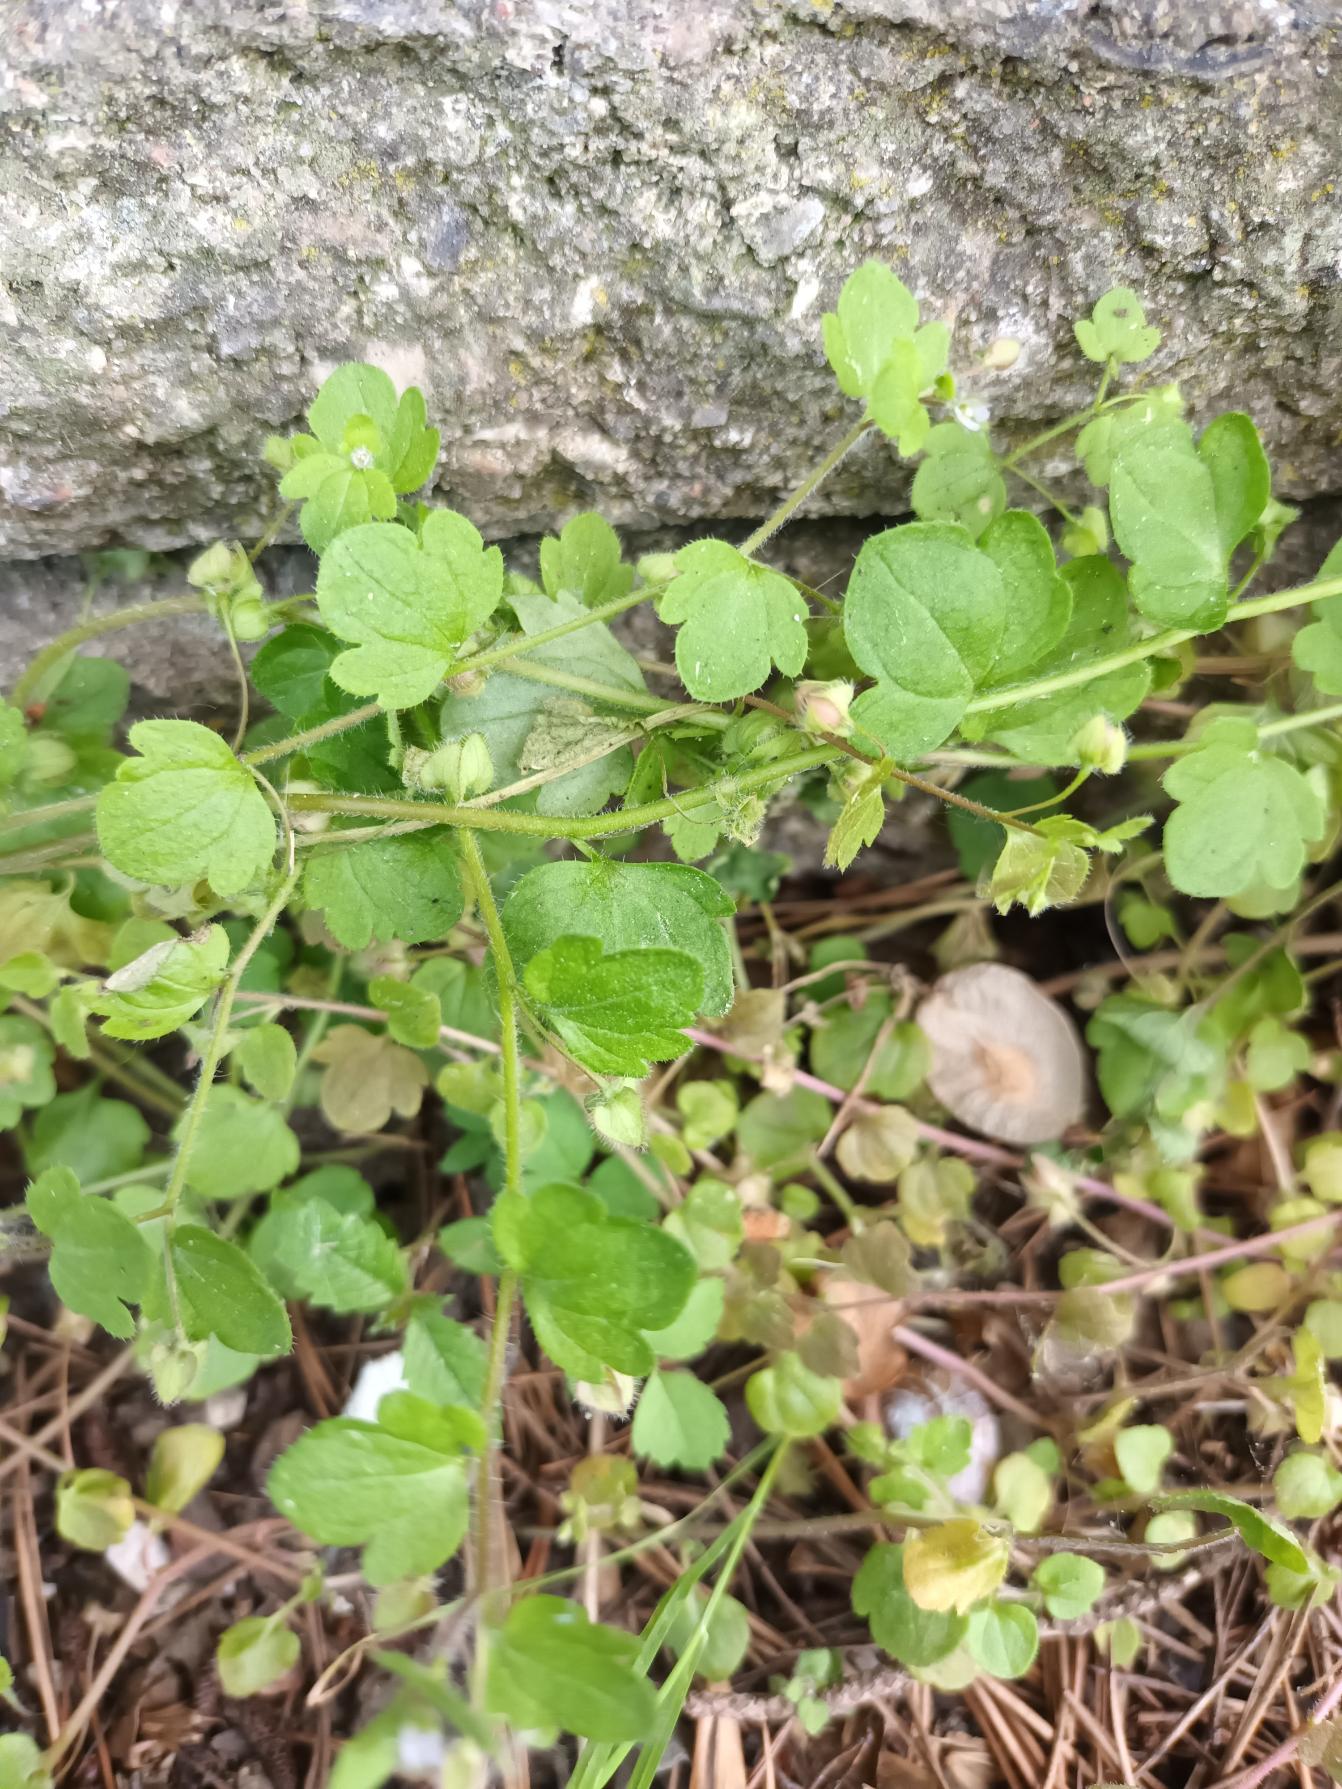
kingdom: Plantae
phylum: Tracheophyta
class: Magnoliopsida
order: Lamiales
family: Plantaginaceae
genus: Veronica
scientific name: Veronica sublobata
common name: Krat-ærenpris
